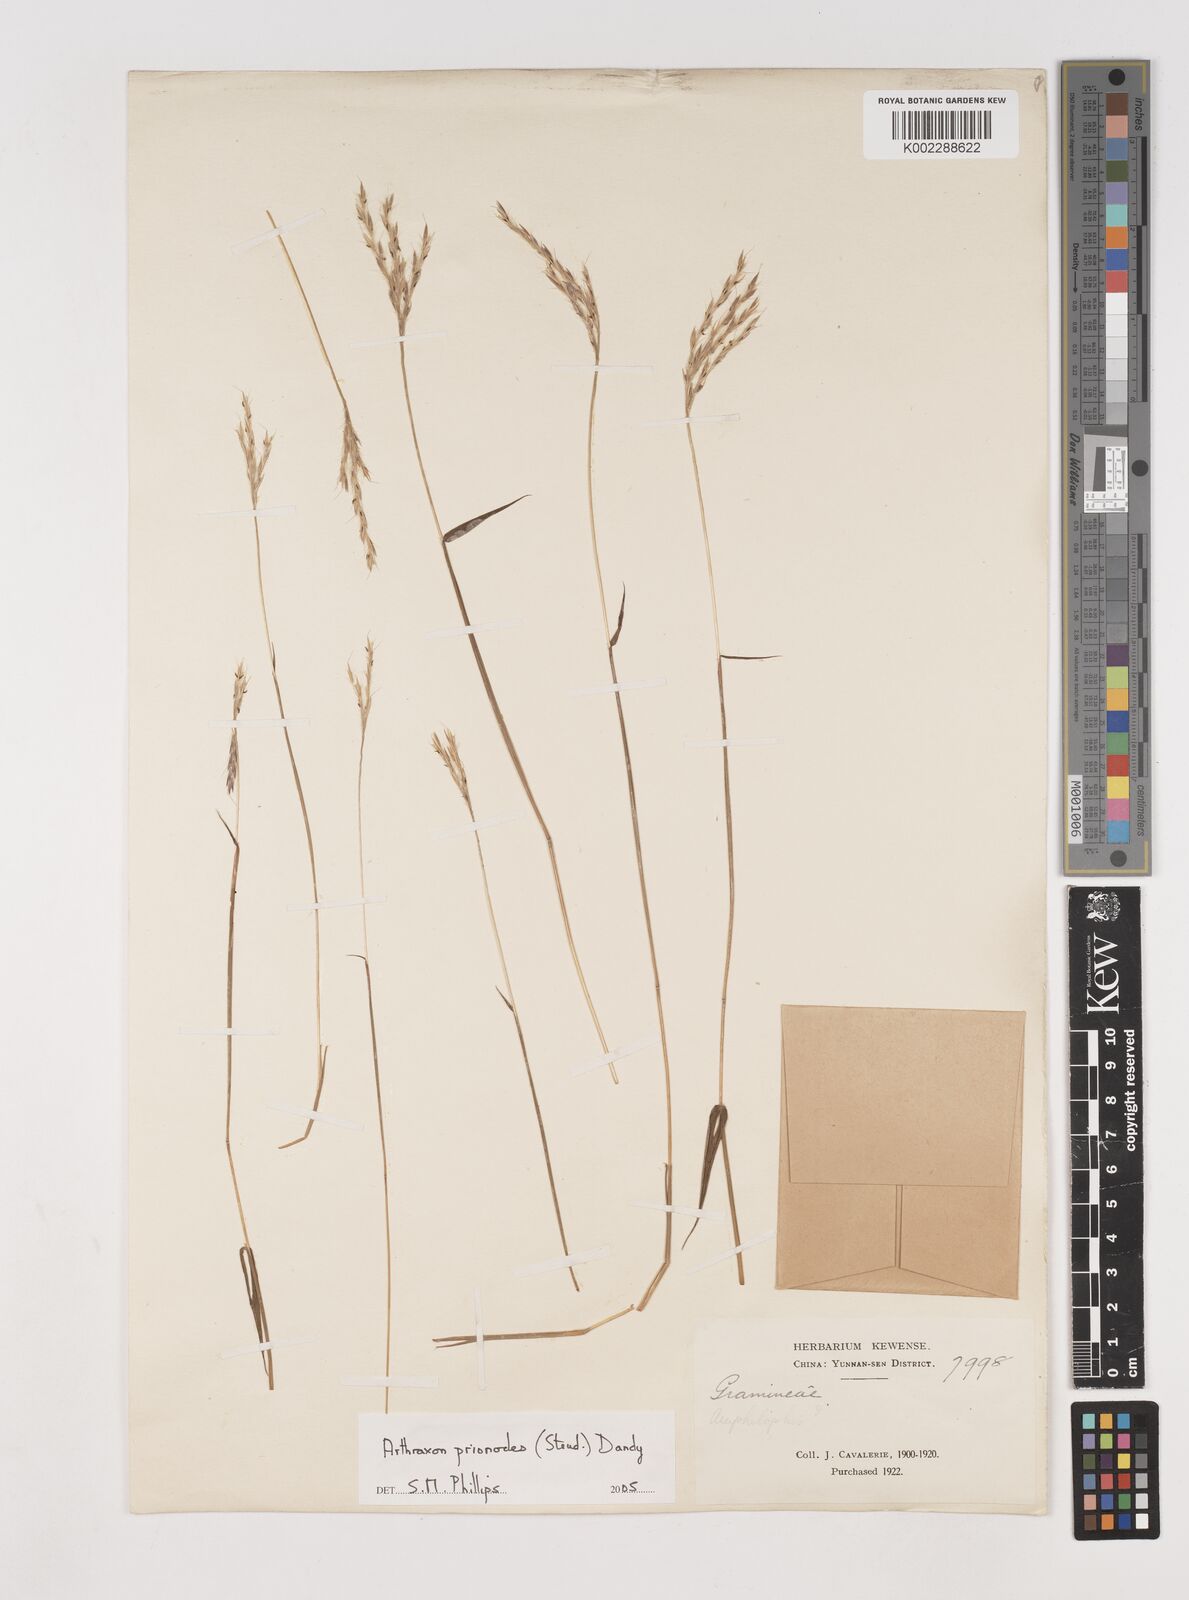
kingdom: Plantae
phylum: Tracheophyta
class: Liliopsida
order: Poales
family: Poaceae
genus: Arthraxon
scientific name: Arthraxon prionodes
